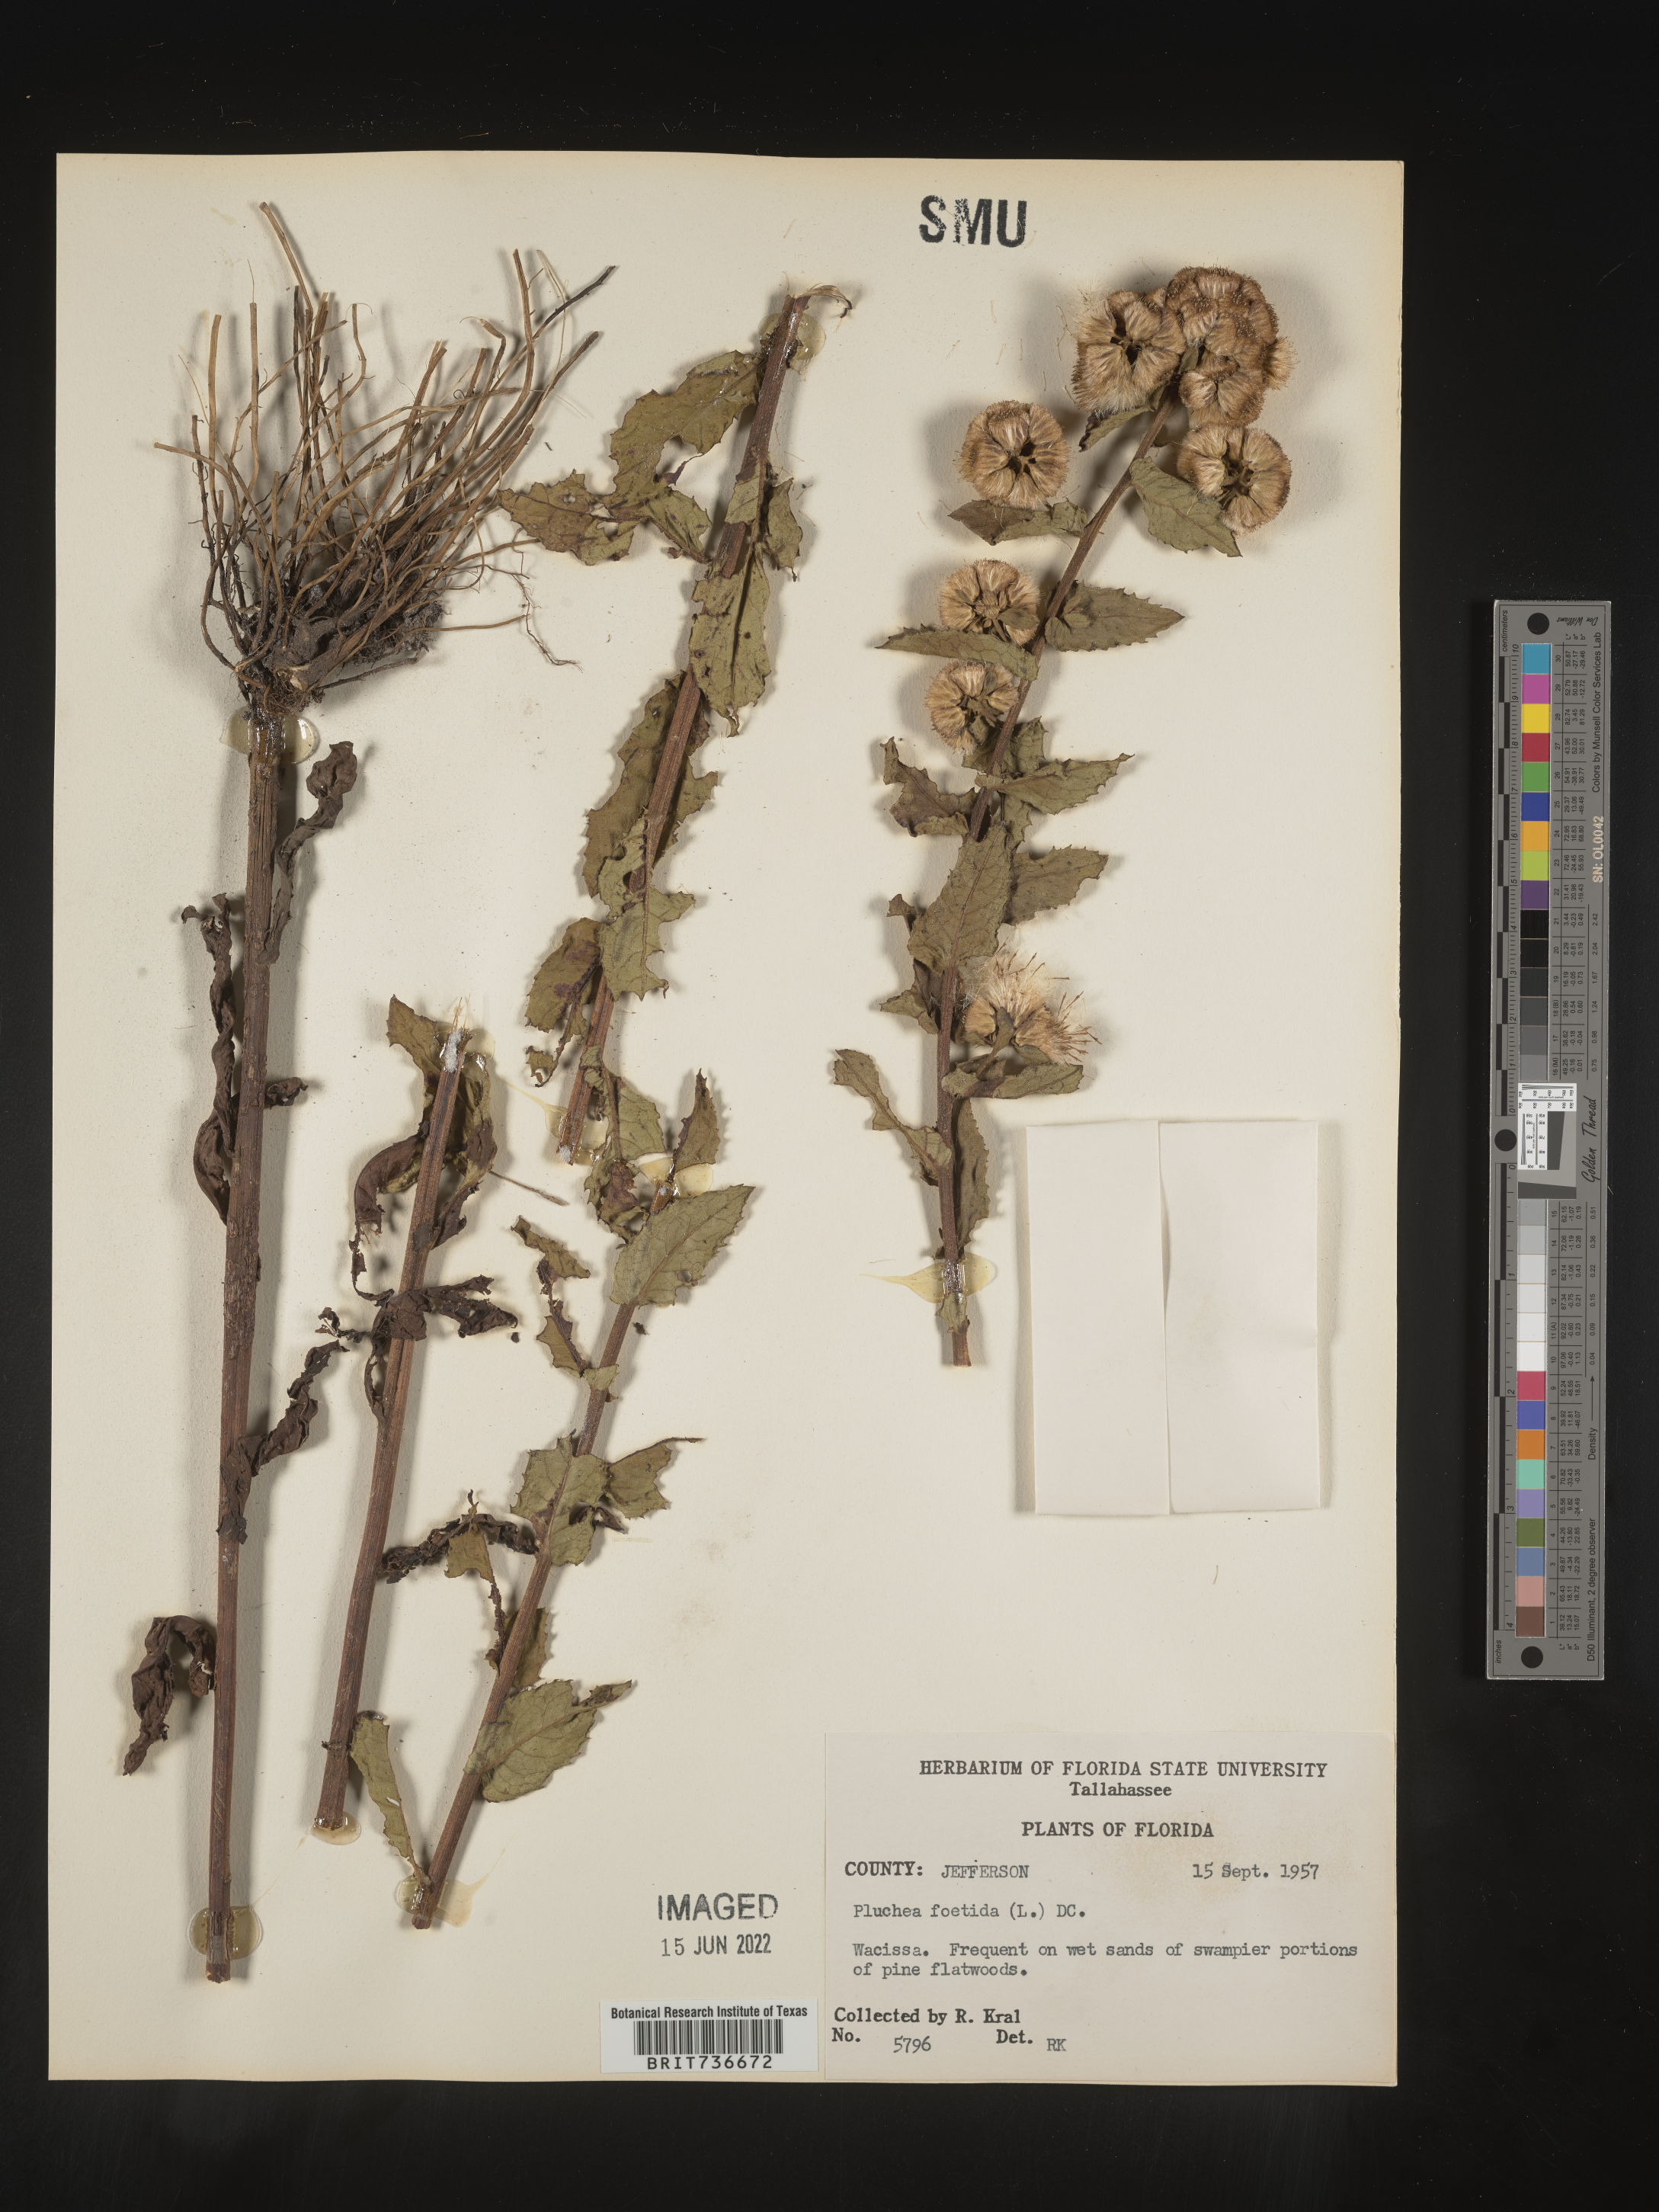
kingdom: Plantae
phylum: Tracheophyta
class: Magnoliopsida
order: Asterales
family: Asteraceae
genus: Pluchea
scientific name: Pluchea foetida
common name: Stinking camphorweed
